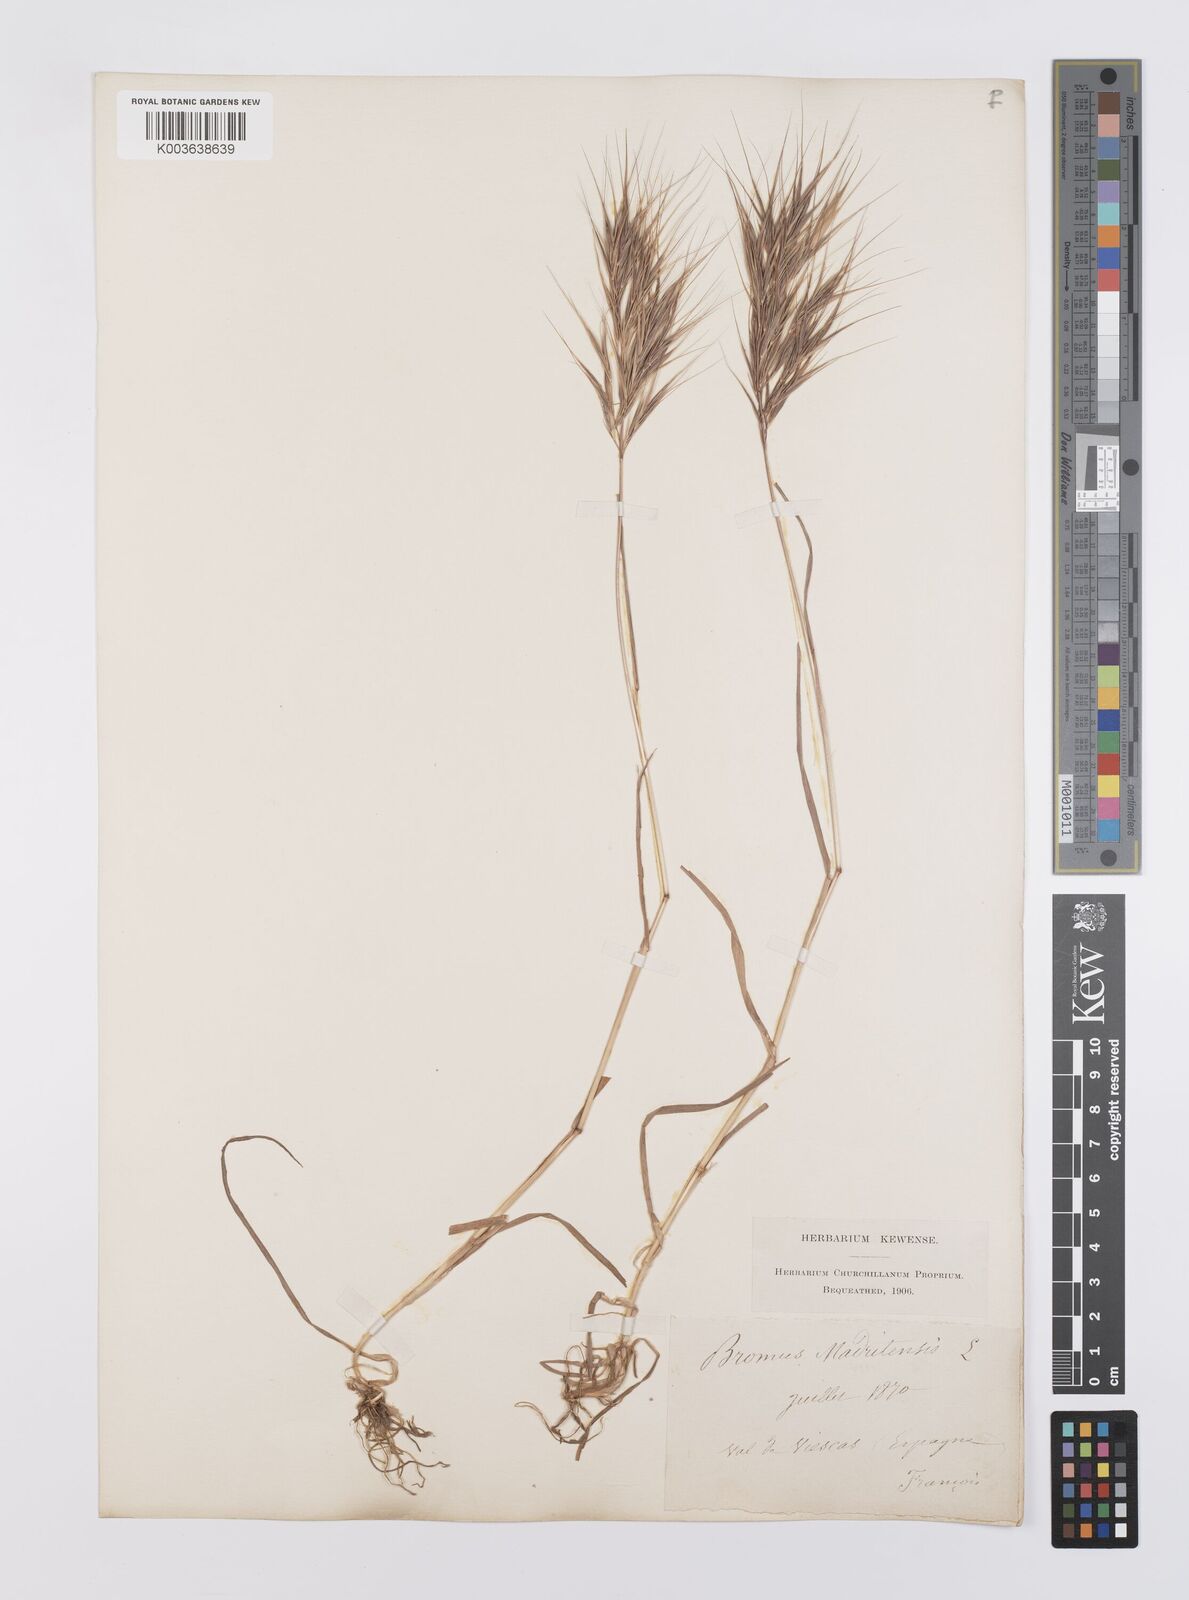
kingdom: Plantae
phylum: Tracheophyta
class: Liliopsida
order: Poales
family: Poaceae
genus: Bromus
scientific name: Bromus madritensis
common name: Compact brome
